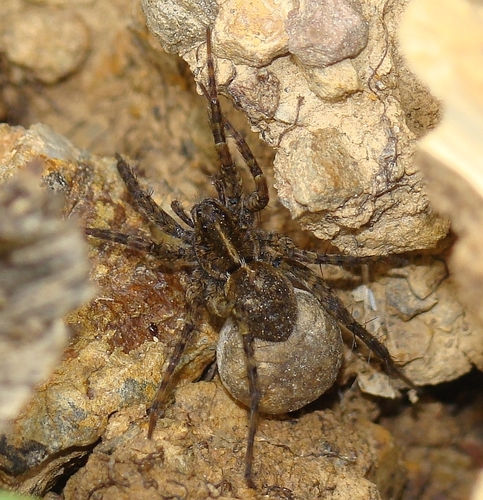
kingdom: Animalia
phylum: Arthropoda
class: Arachnida
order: Araneae
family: Lycosidae
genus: Pardosa
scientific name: Pardosa
